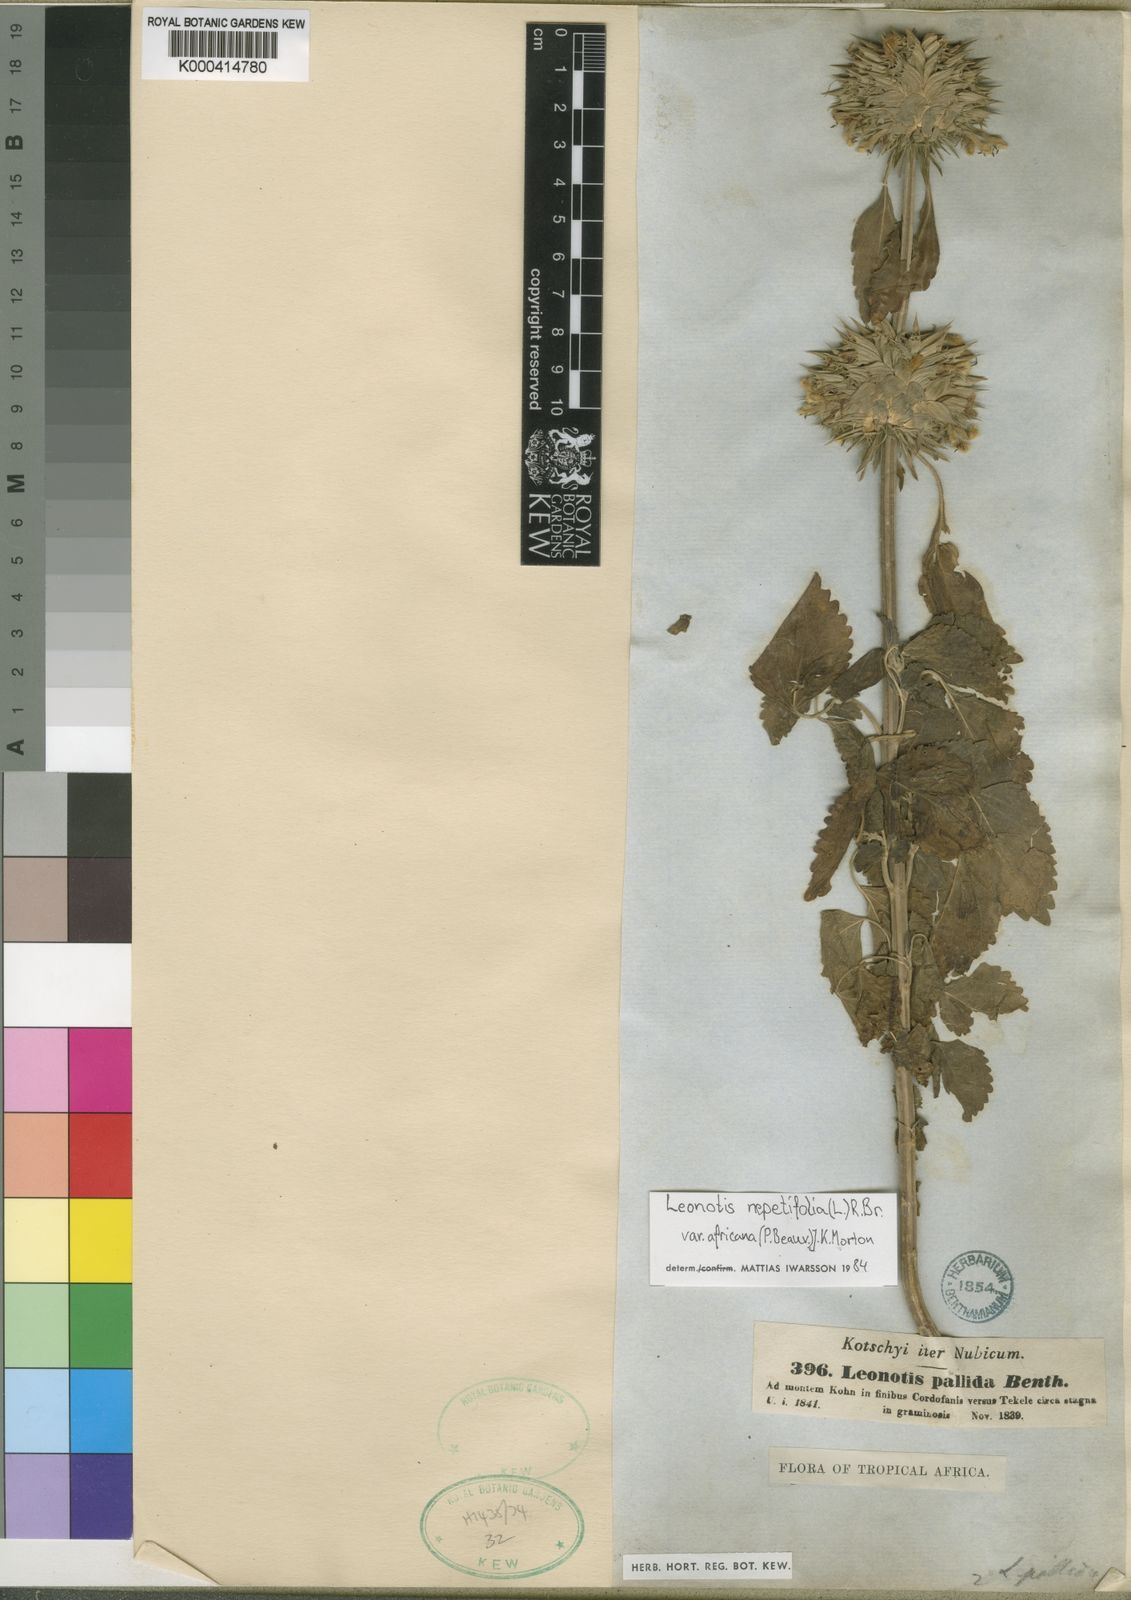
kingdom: Plantae
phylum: Tracheophyta
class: Magnoliopsida
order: Lamiales
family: Lamiaceae
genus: Leonotis
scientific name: Leonotis nepetifolia
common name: Christmas candlestick
